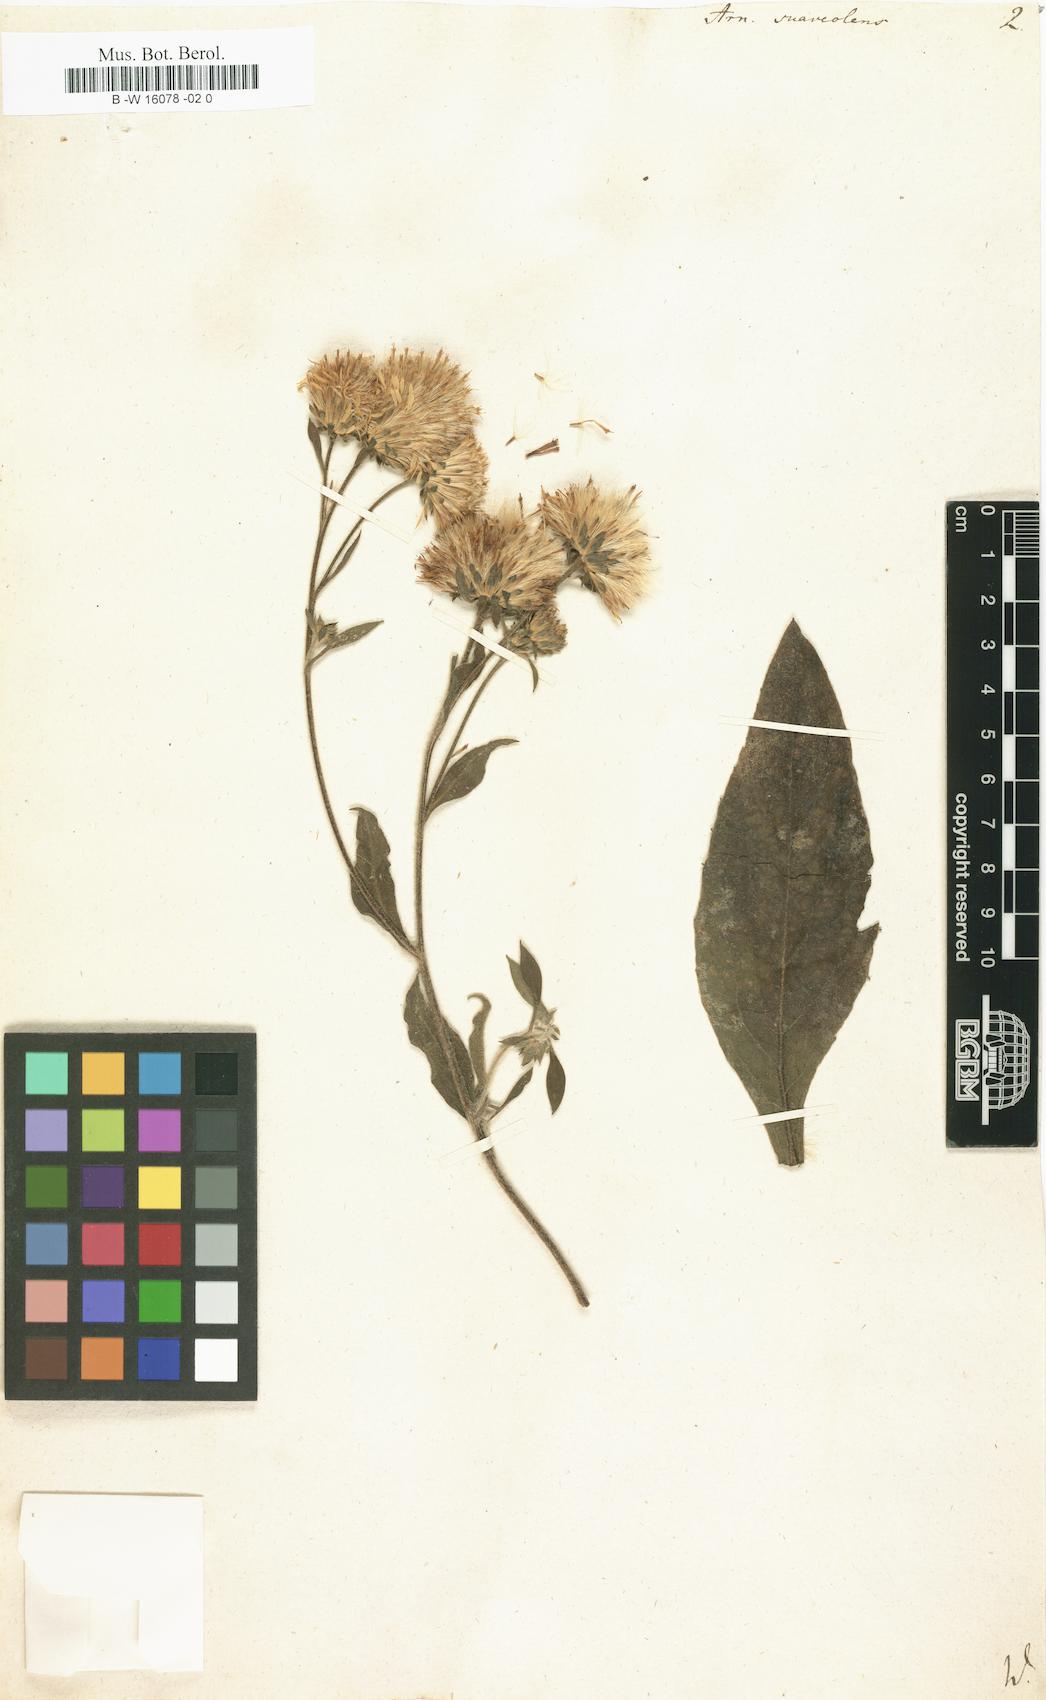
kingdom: Plantae
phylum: Tracheophyta
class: Magnoliopsida
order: Asterales
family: Asteraceae
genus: Arnica
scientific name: Arnica
